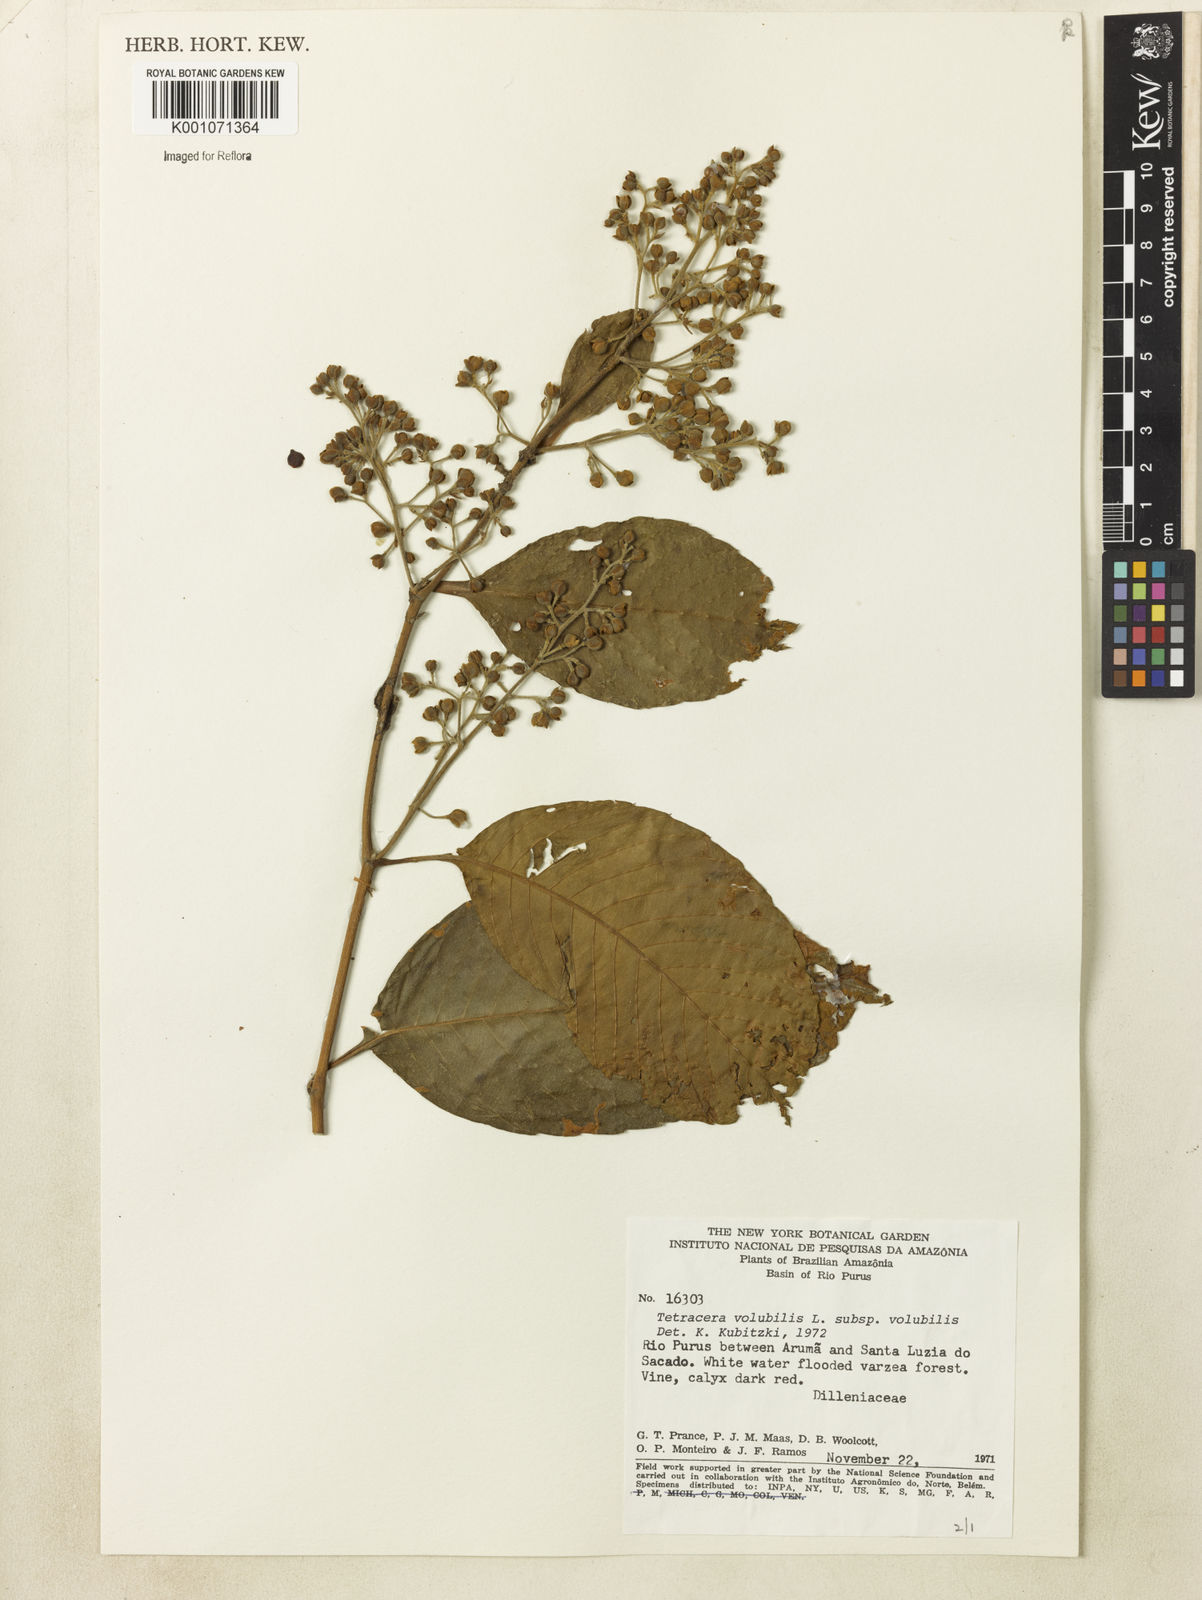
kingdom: Plantae
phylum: Tracheophyta
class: Magnoliopsida
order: Dilleniales
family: Dilleniaceae
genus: Tetracera
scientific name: Tetracera volubilis
